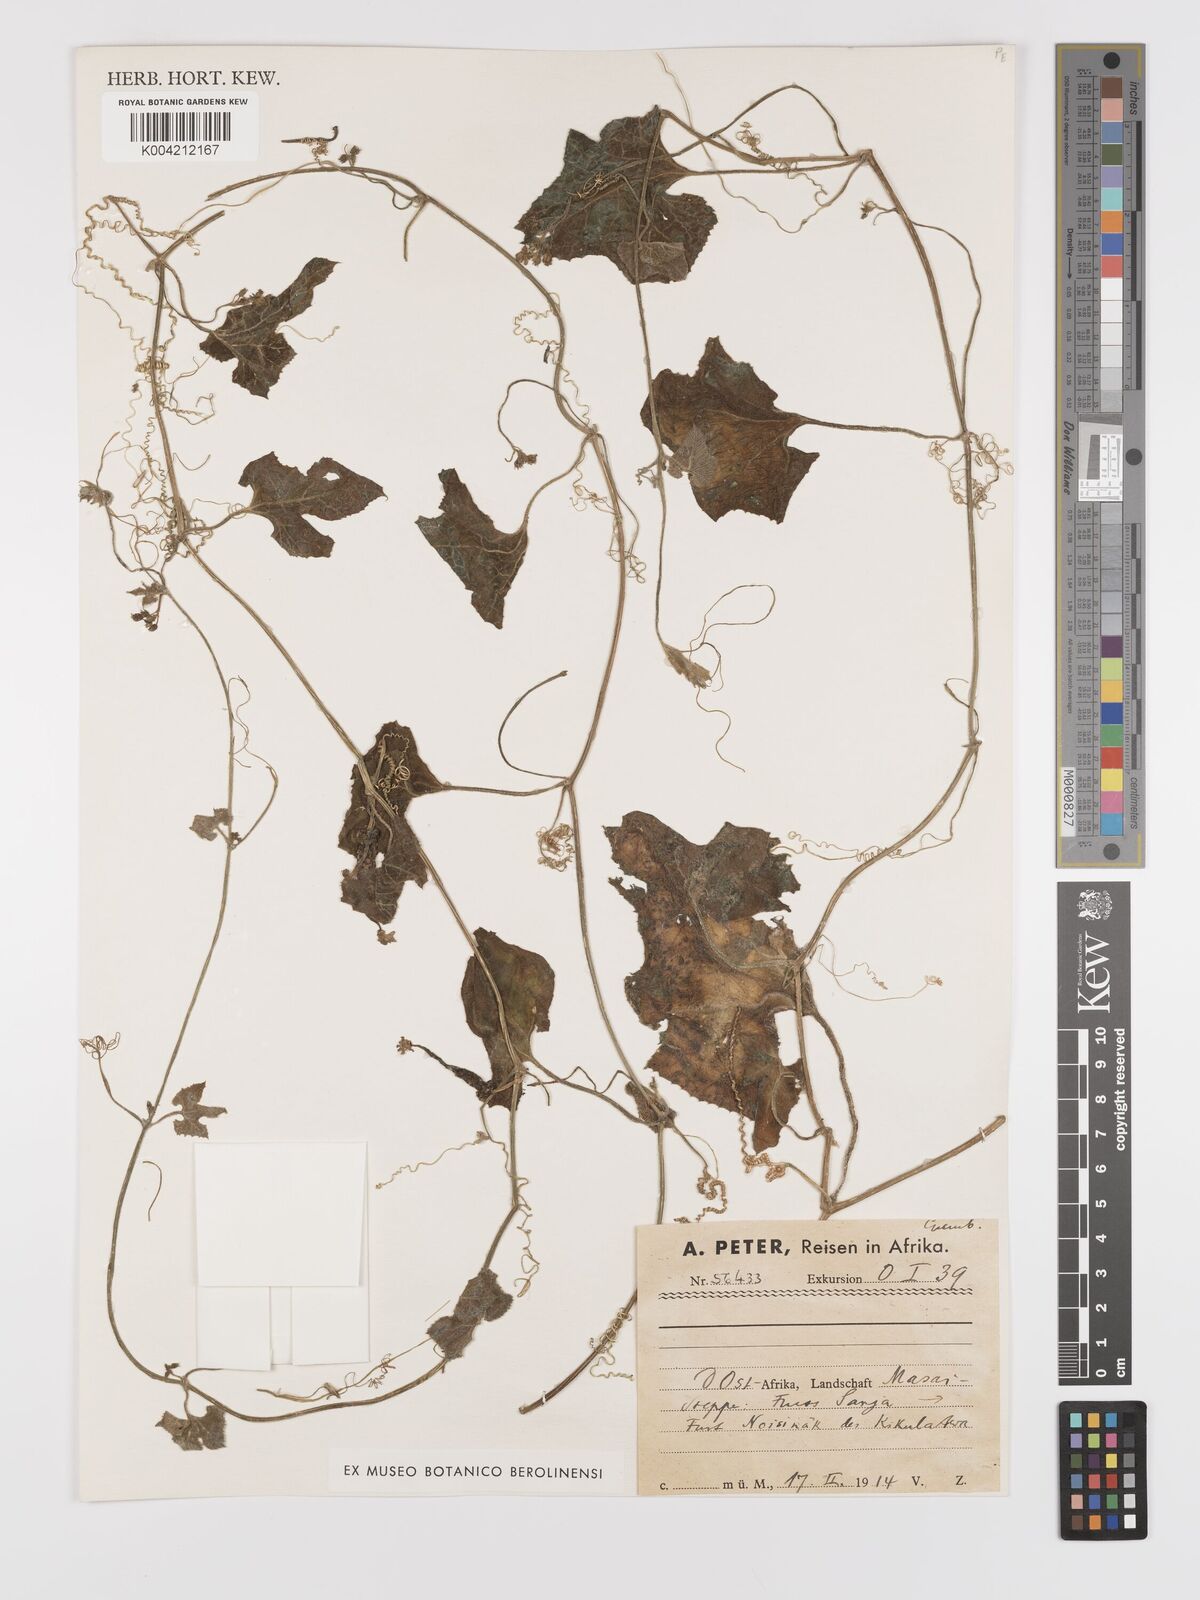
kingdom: Plantae
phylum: Tracheophyta
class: Magnoliopsida
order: Cucurbitales
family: Cucurbitaceae
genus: Kedrostis
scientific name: Kedrostis leloja
